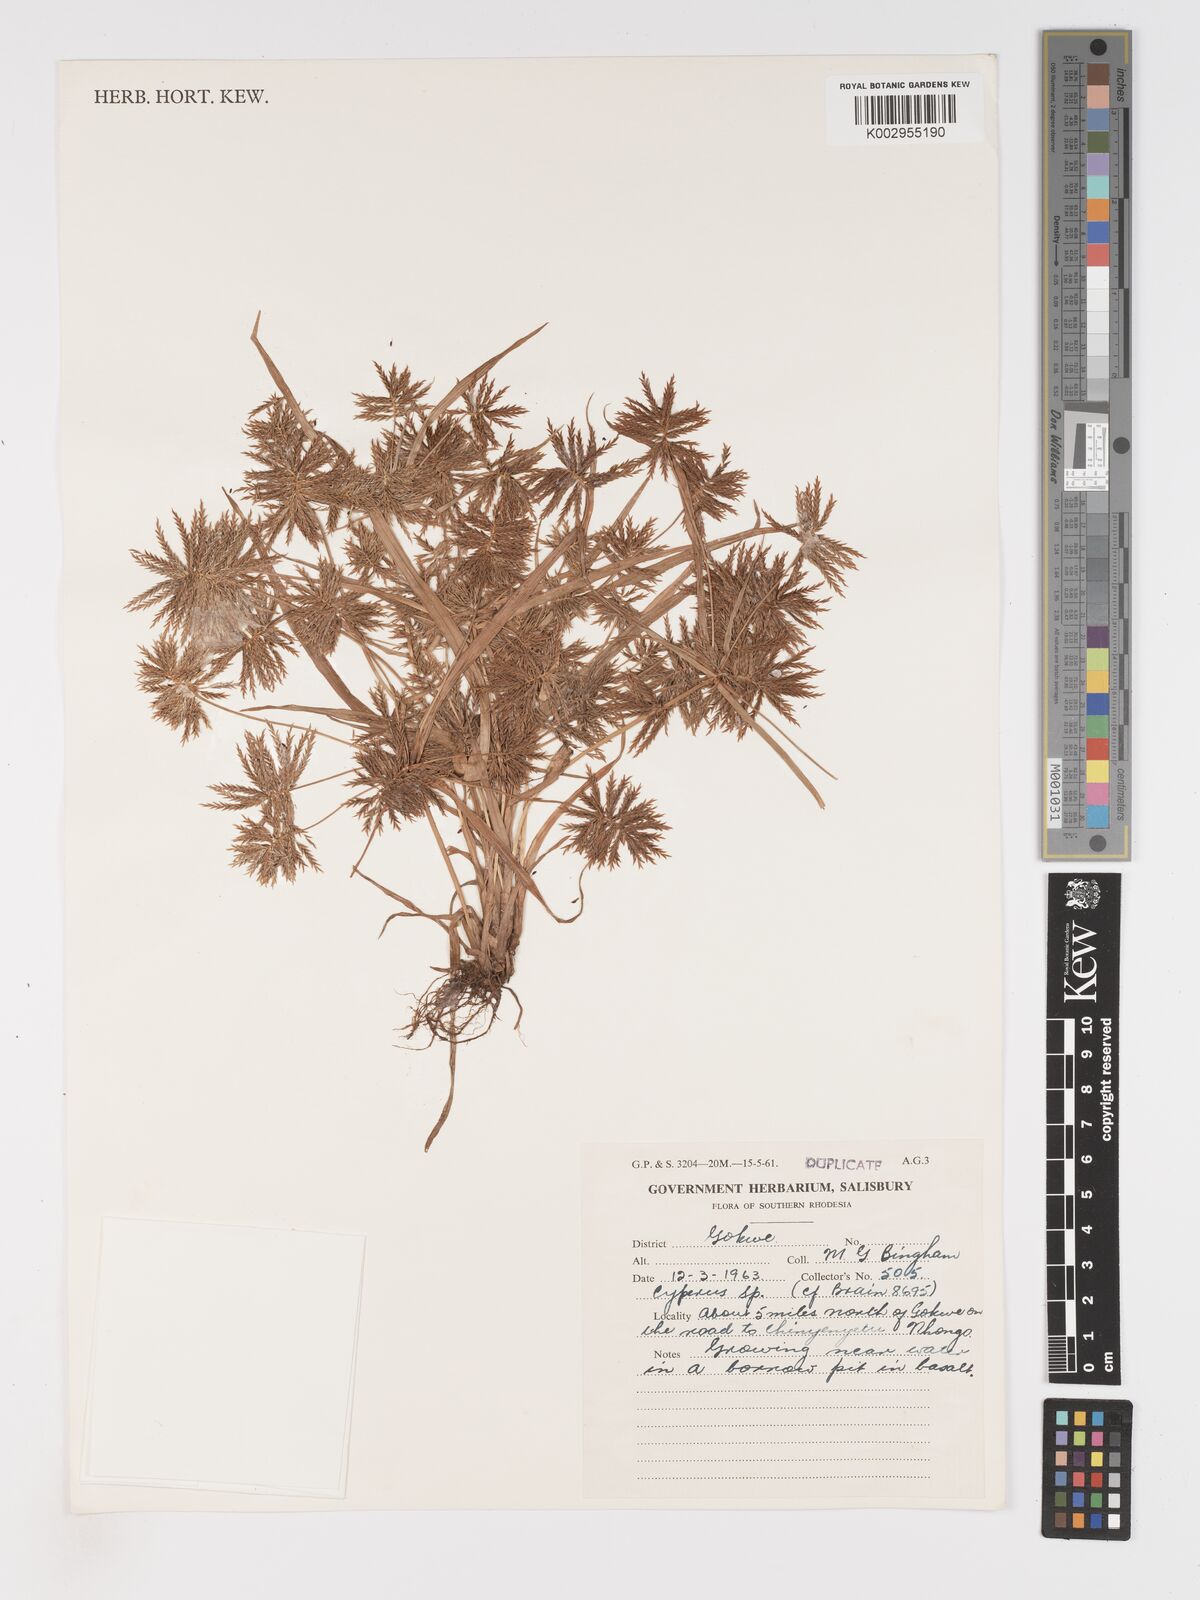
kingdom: Plantae
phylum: Tracheophyta
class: Liliopsida
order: Poales
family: Cyperaceae
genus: Cyperus
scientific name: Cyperus
